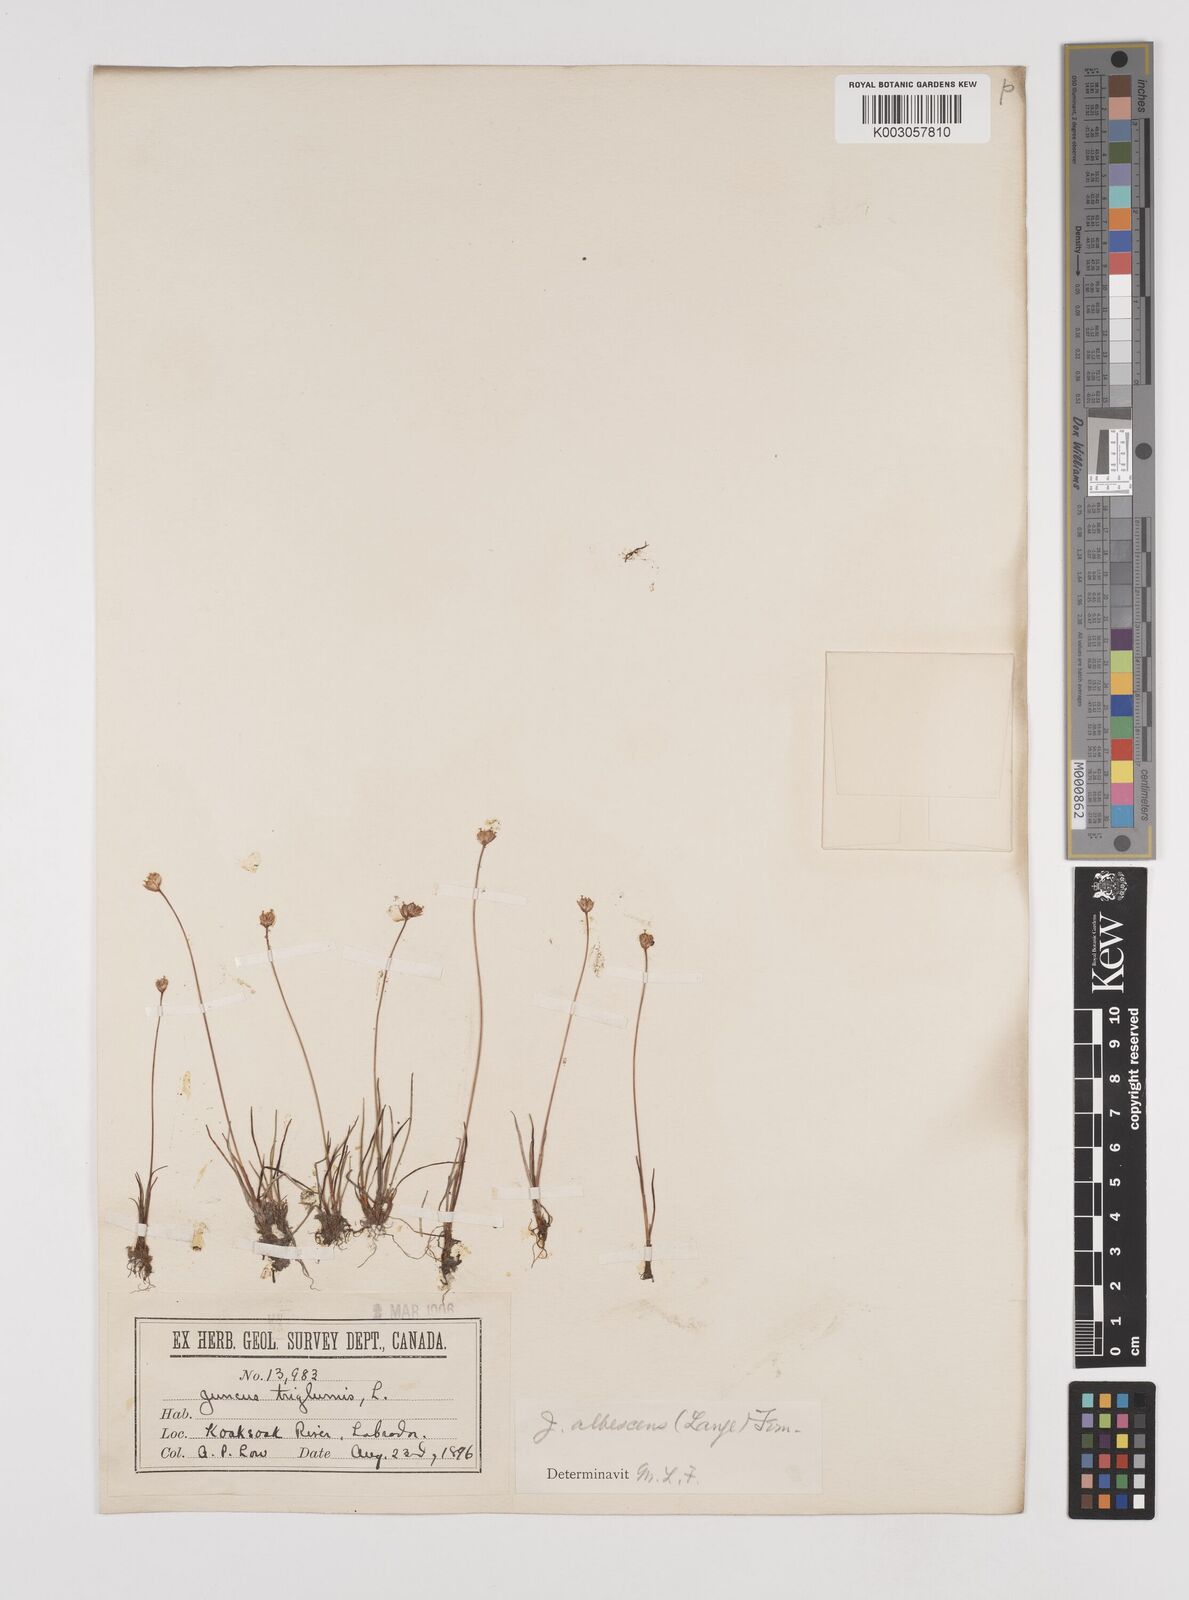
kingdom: Plantae
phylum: Tracheophyta
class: Liliopsida
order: Poales
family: Juncaceae
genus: Juncus
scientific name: Juncus triglumis
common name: Three-flowered rush
